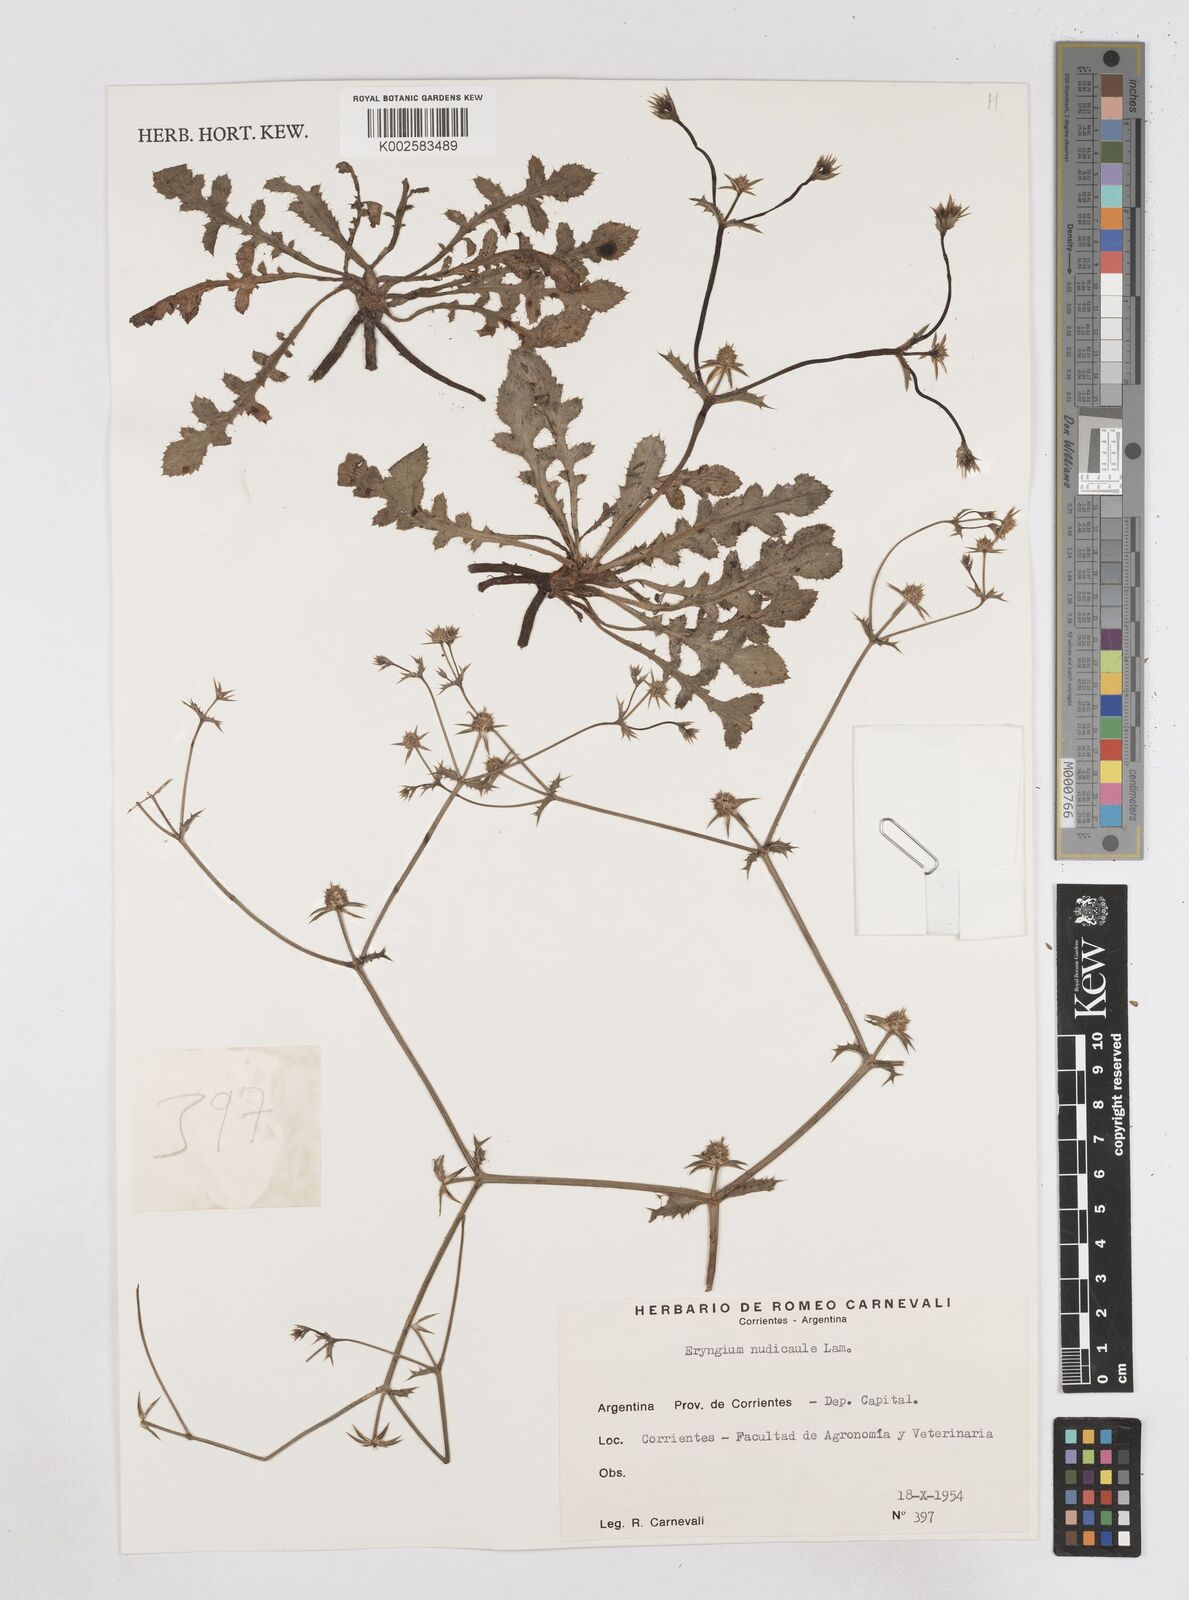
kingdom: Plantae
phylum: Tracheophyta
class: Magnoliopsida
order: Apiales
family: Apiaceae
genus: Eryngium
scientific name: Eryngium nudicaule
